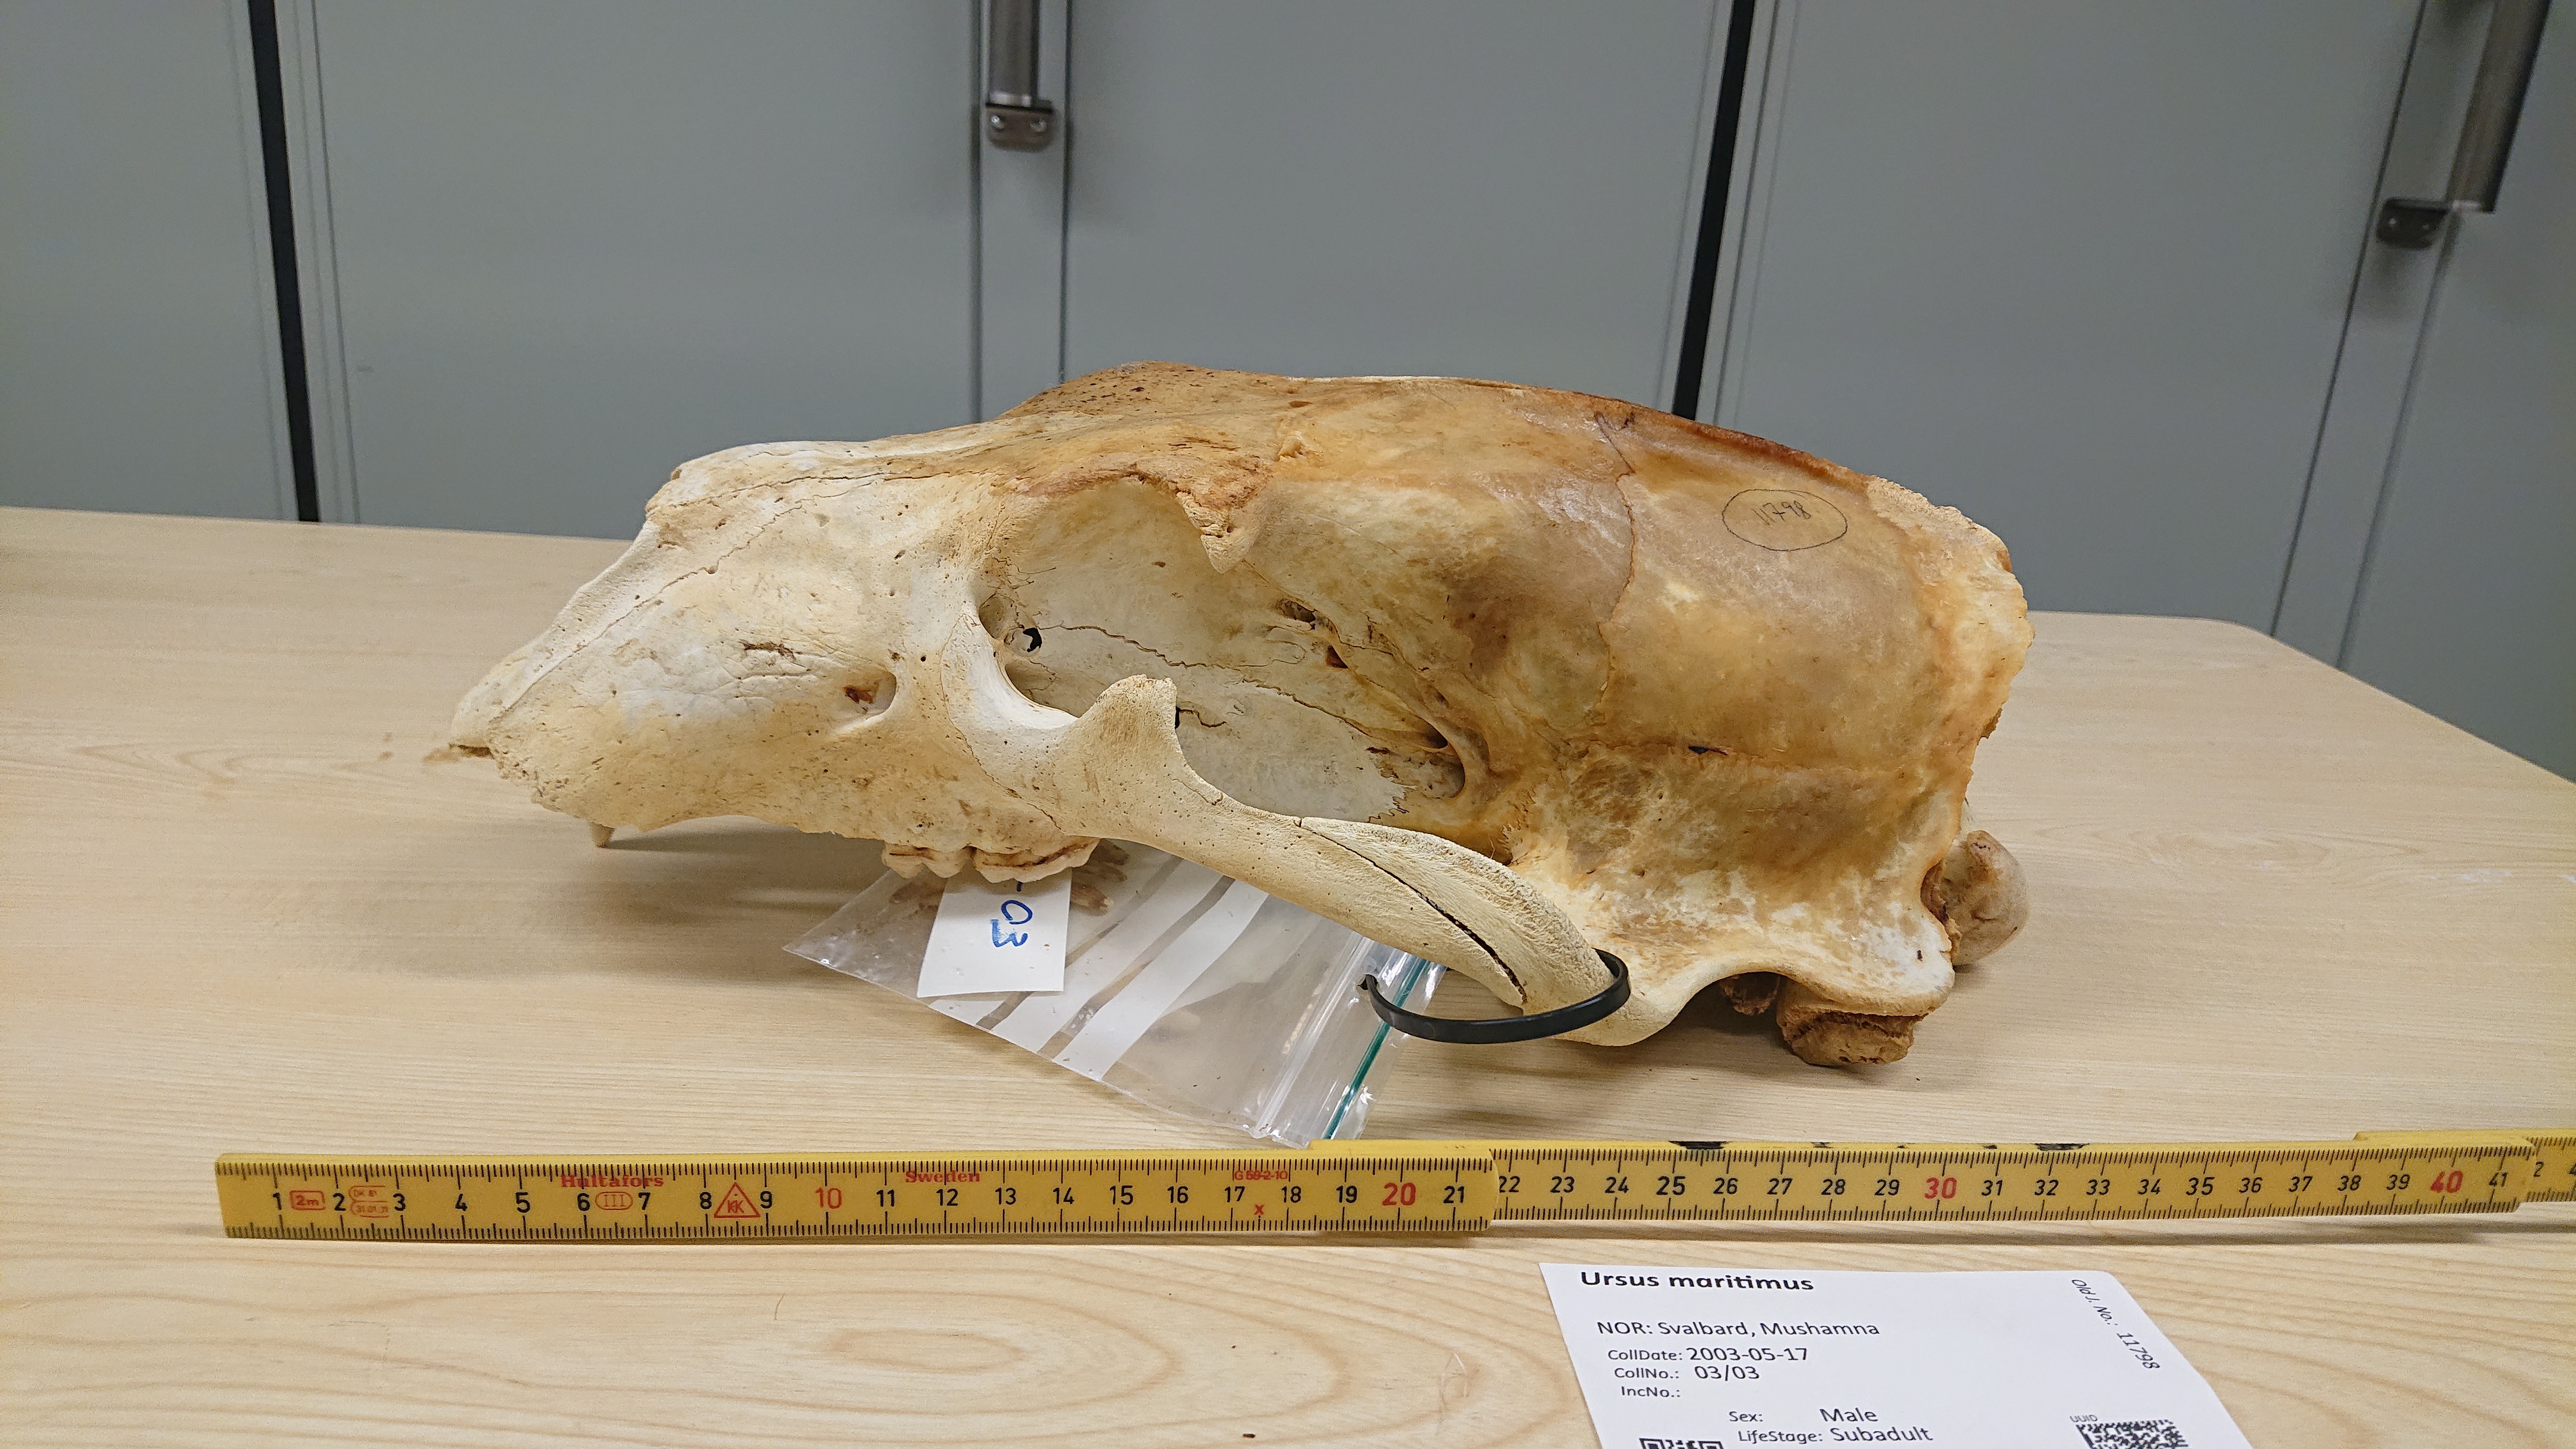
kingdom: Animalia
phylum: Chordata
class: Mammalia
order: Carnivora
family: Ursidae
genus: Ursus
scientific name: Ursus maritimus
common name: Polar bear
